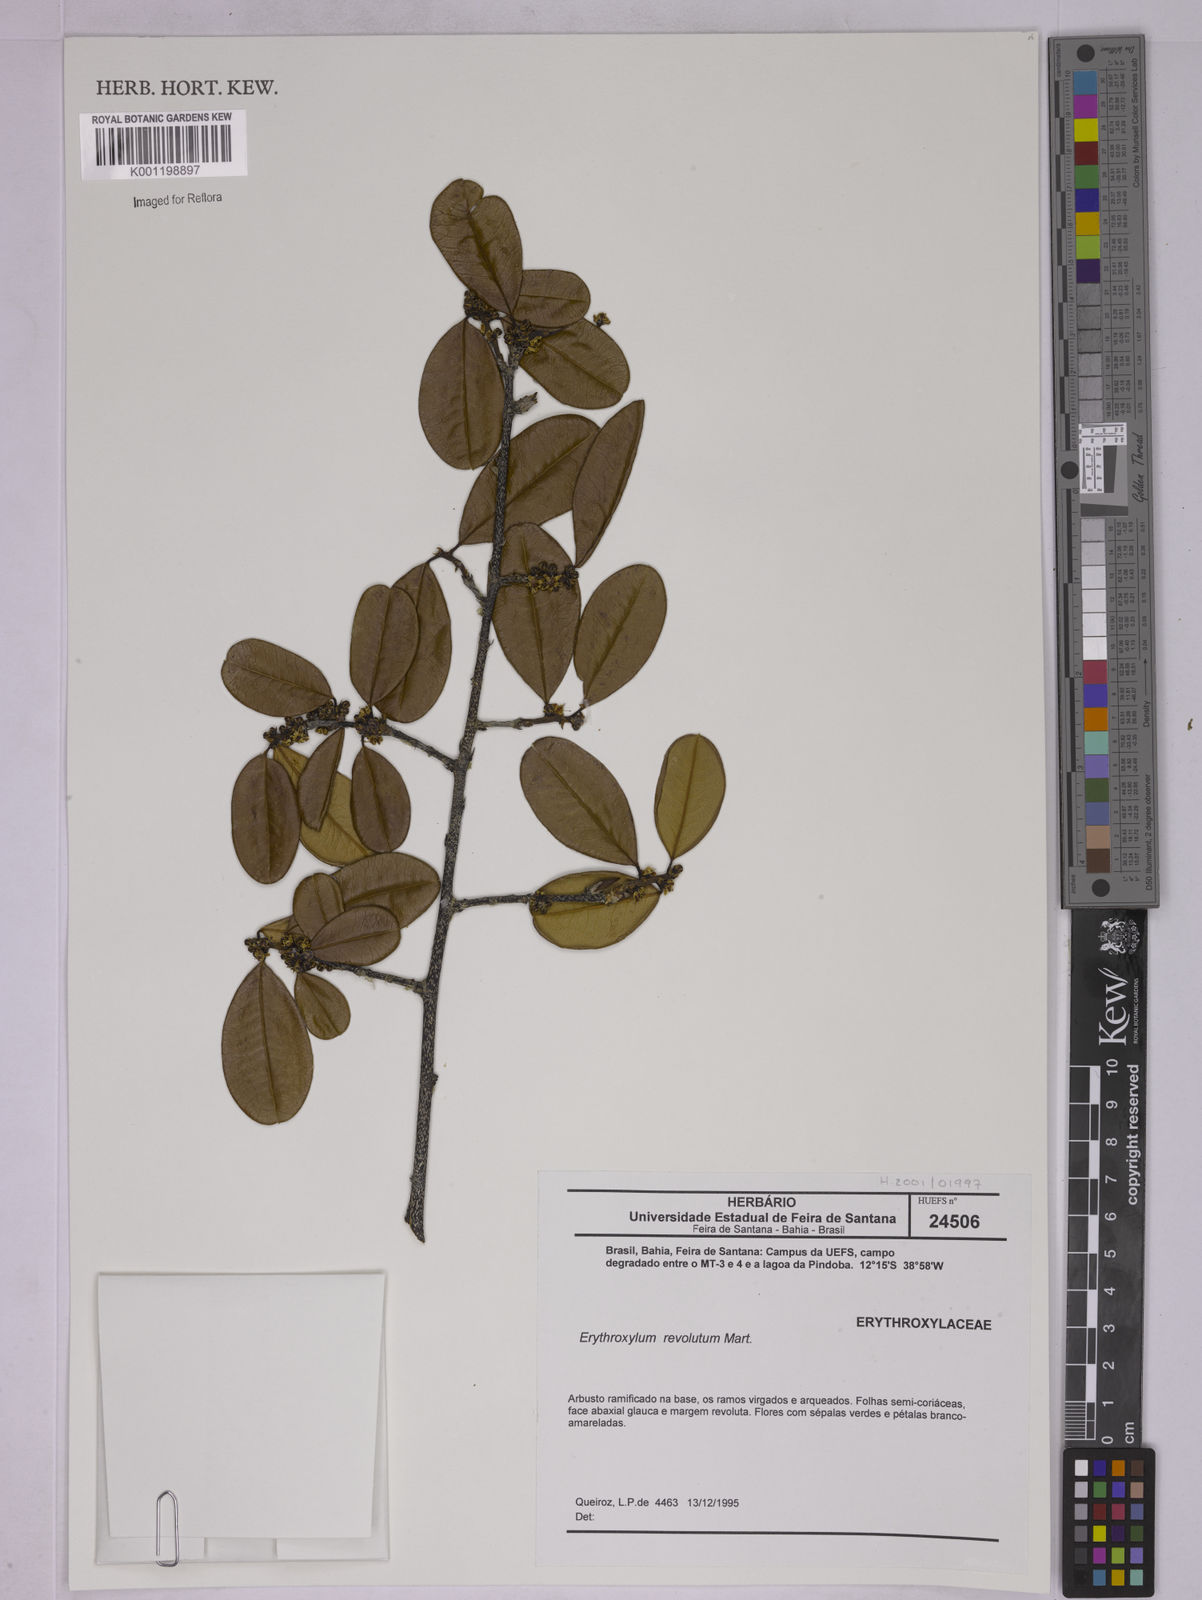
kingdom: Plantae
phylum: Tracheophyta
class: Magnoliopsida
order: Malpighiales
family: Erythroxylaceae
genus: Erythroxylum
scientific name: Erythroxylum revolutum
